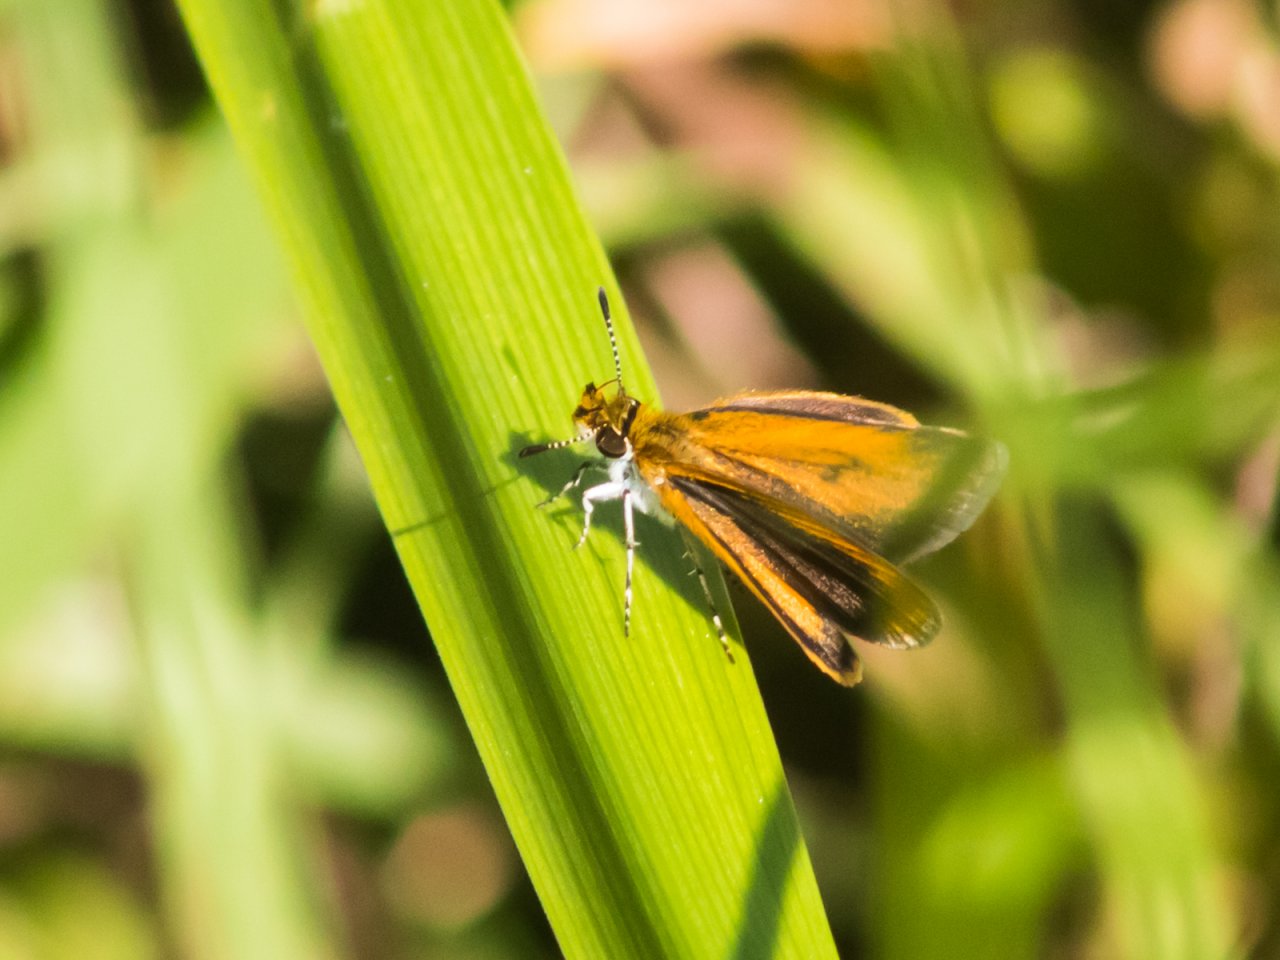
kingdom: Animalia
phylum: Arthropoda
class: Insecta
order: Lepidoptera
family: Hesperiidae
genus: Ancyloxypha
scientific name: Ancyloxypha numitor
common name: Least Skipper
